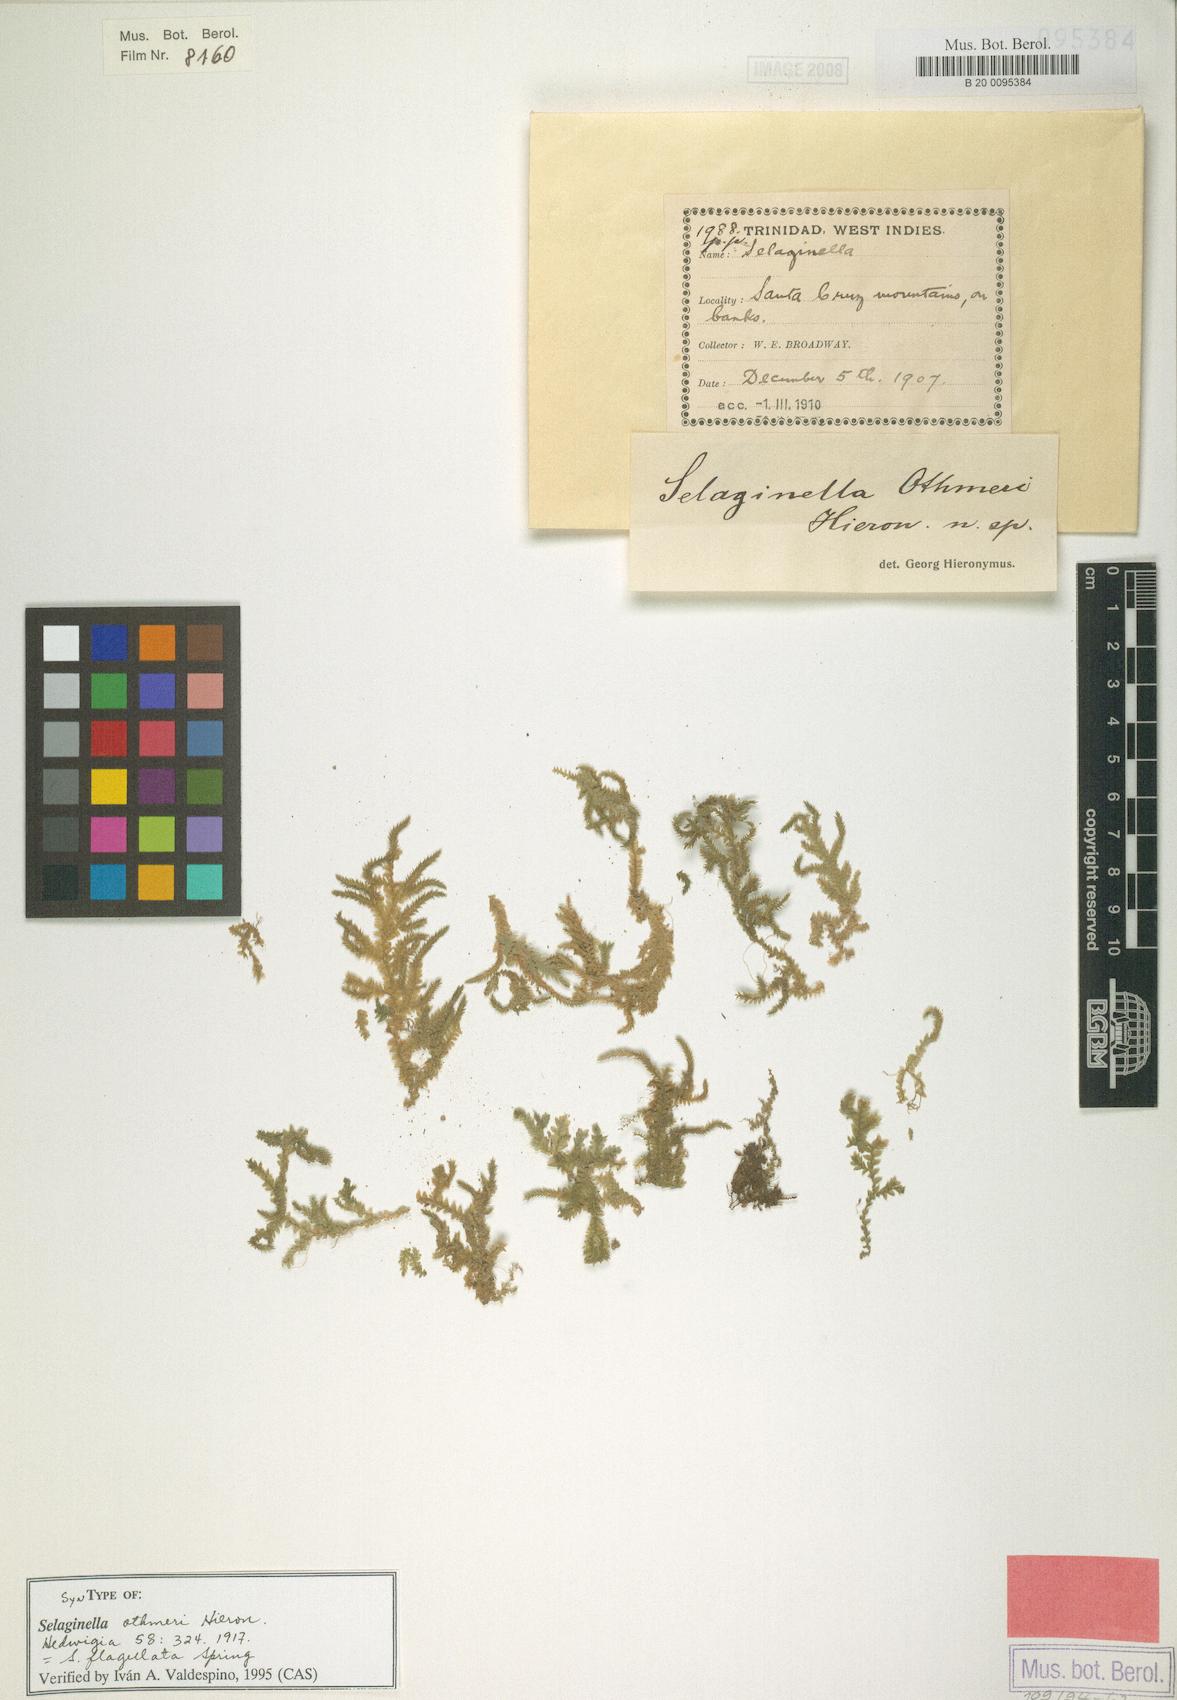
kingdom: Plantae
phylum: Tracheophyta
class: Lycopodiopsida
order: Selaginellales
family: Selaginellaceae
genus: Selaginella
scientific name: Selaginella flagellata
